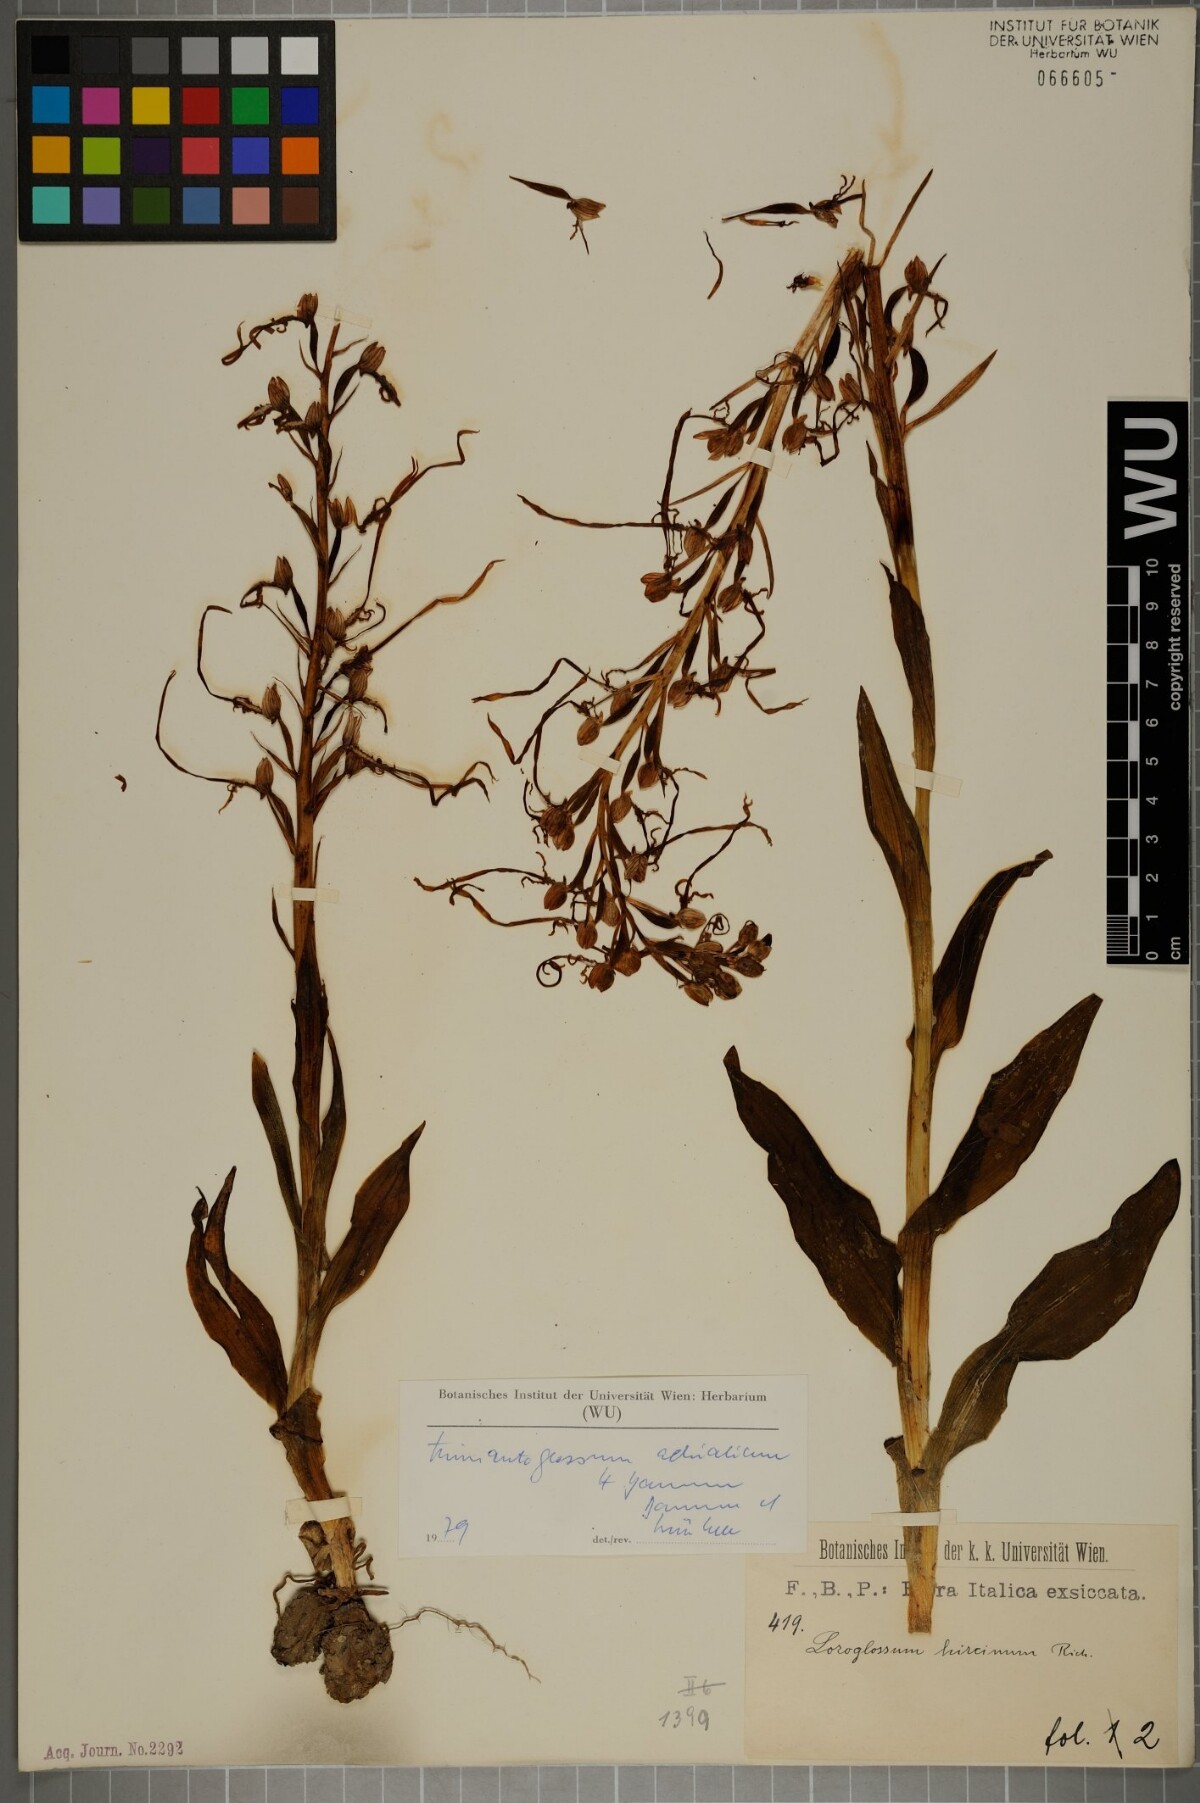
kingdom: Plantae
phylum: Tracheophyta
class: Liliopsida
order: Asparagales
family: Orchidaceae
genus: Himantoglossum
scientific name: Himantoglossum adriaticum
